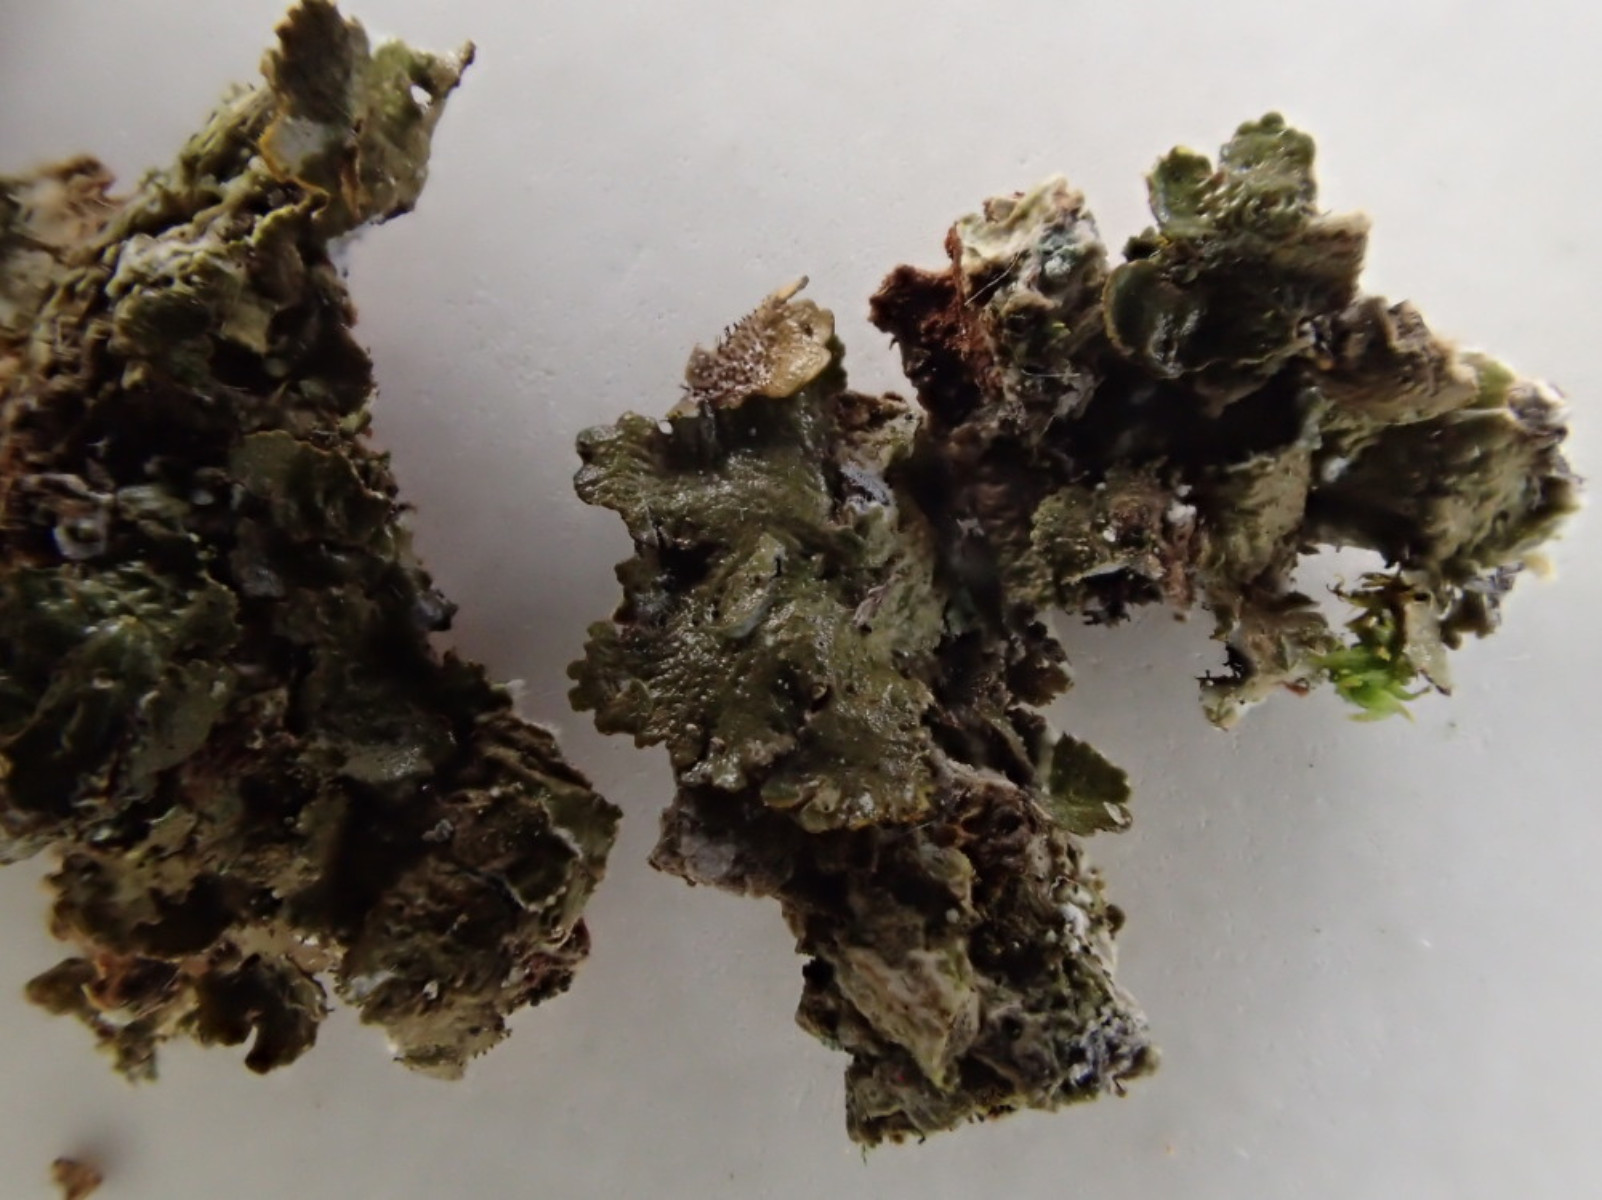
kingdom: Fungi
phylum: Ascomycota
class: Lecanoromycetes
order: Lecanorales
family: Parmeliaceae
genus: Melanelixia
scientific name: Melanelixia glabratula
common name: glinsende skållav
